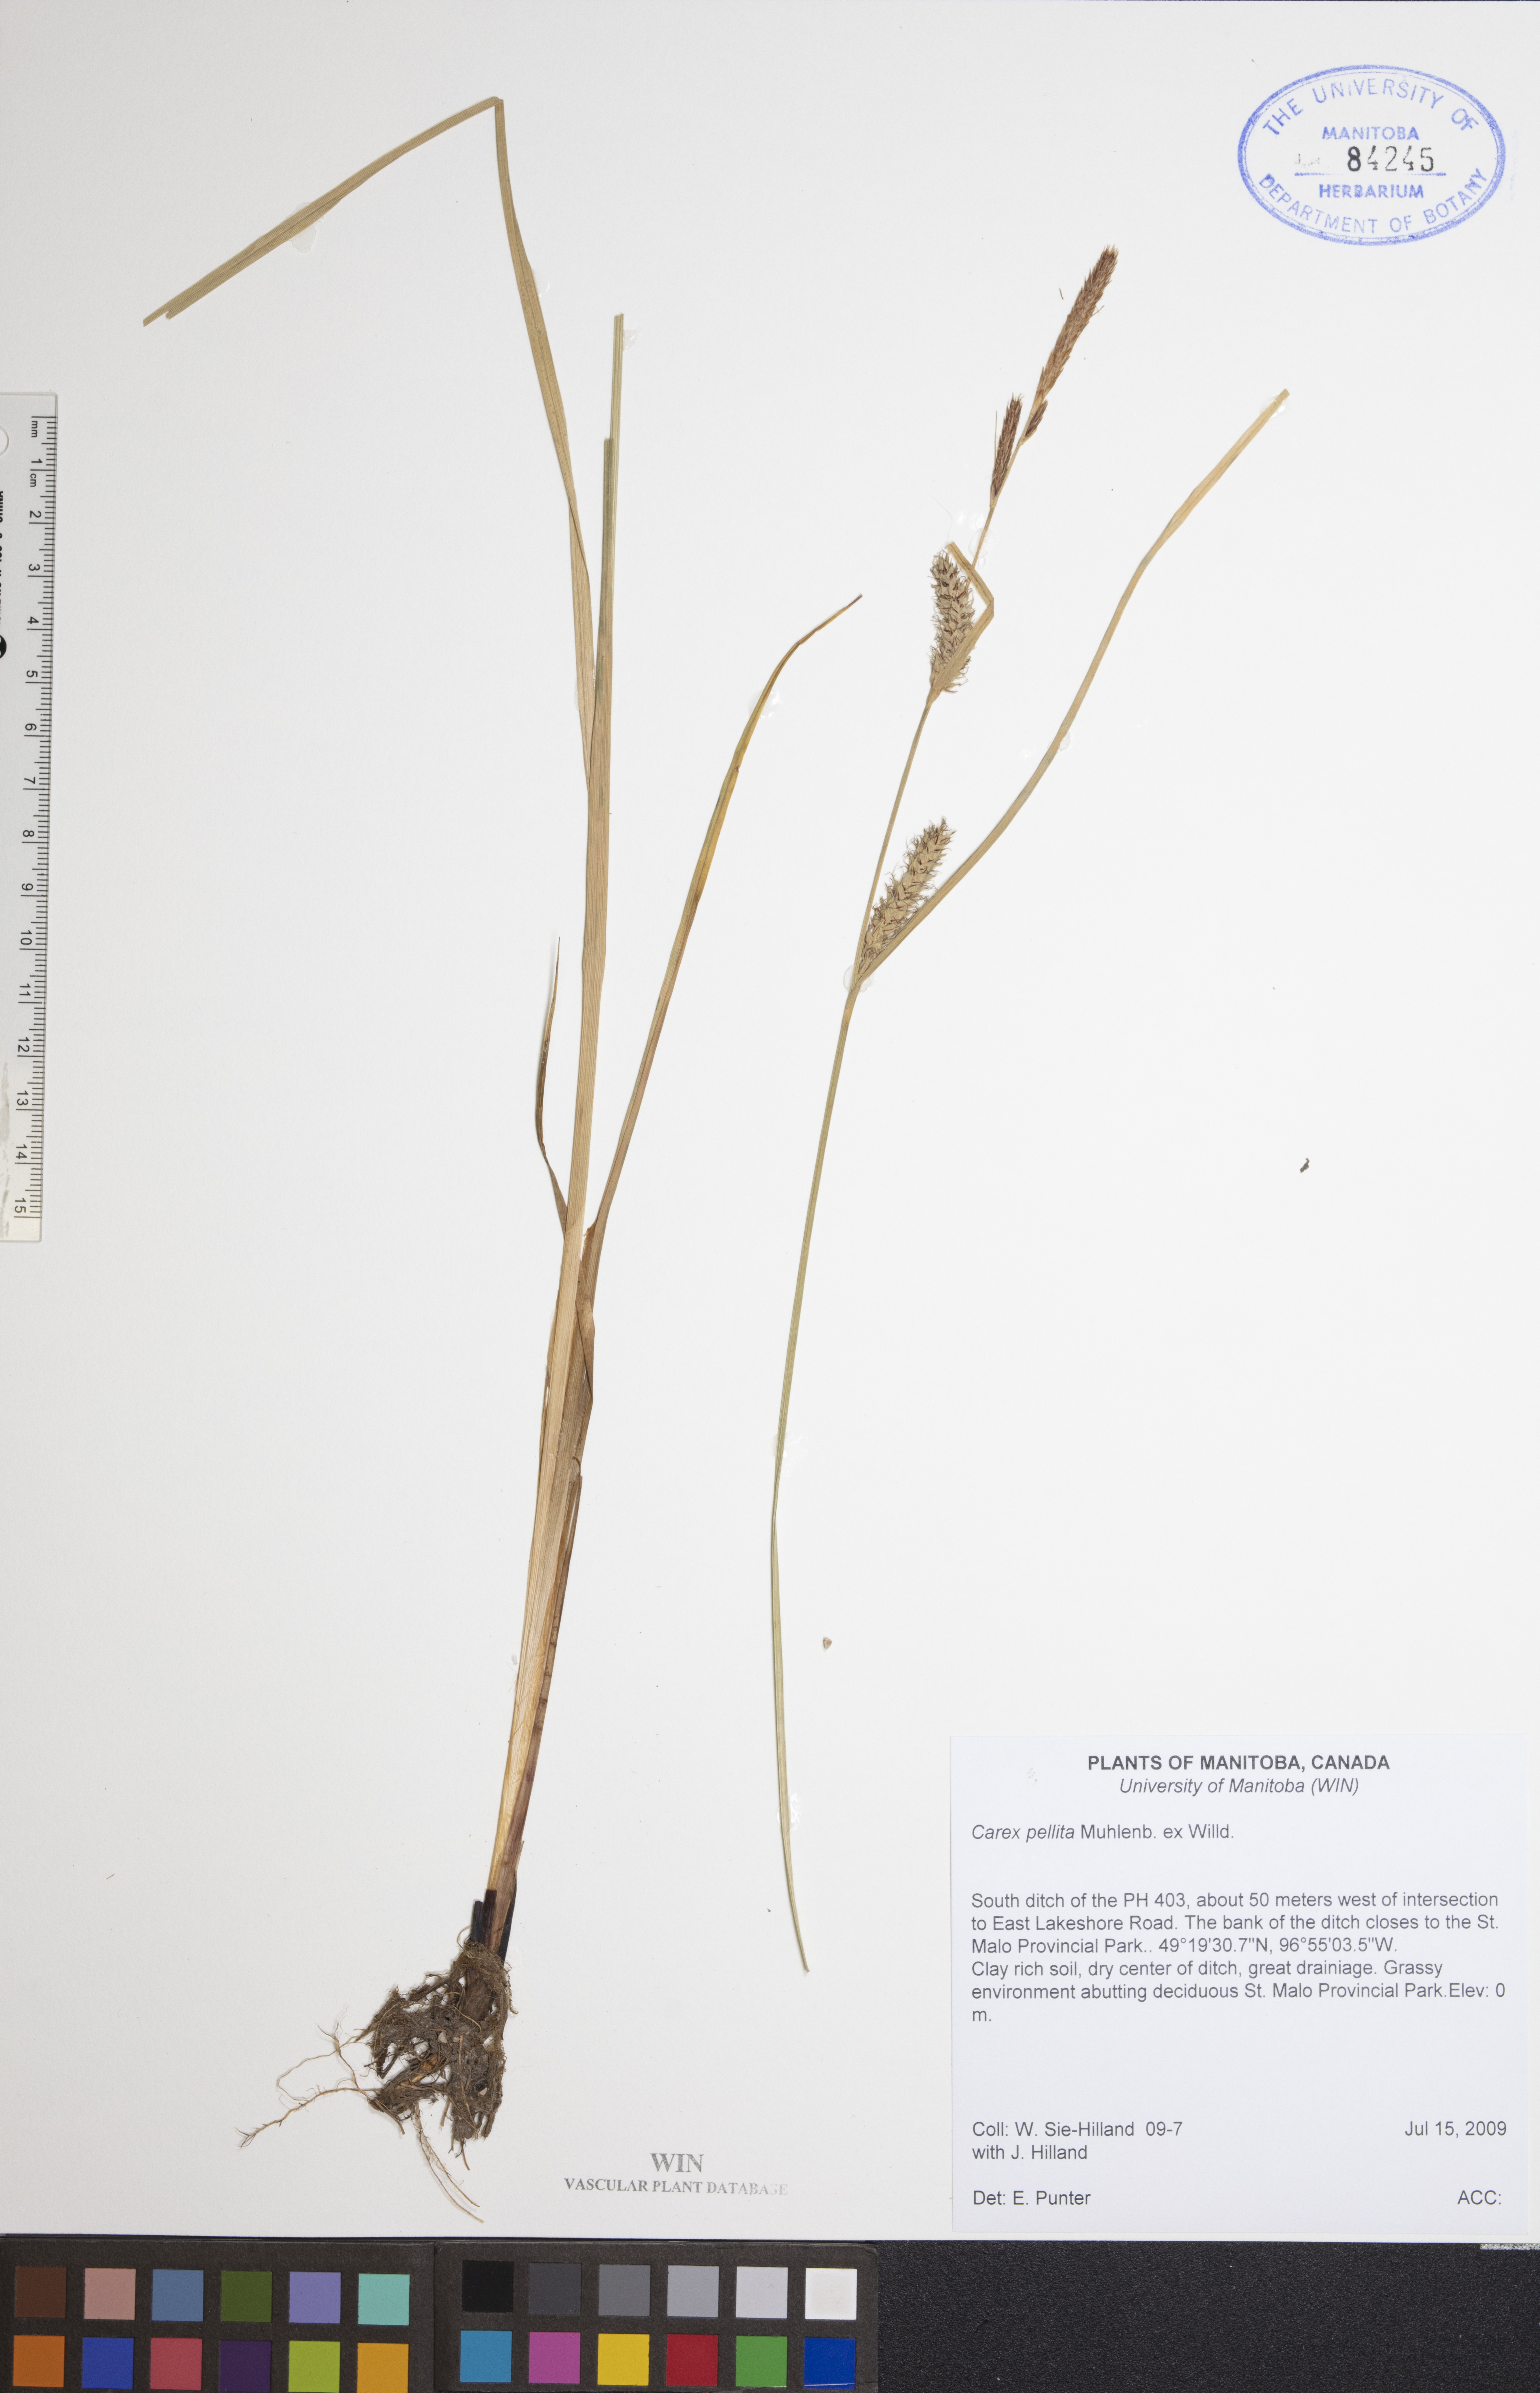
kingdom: Plantae
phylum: Tracheophyta
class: Liliopsida
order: Poales
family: Cyperaceae
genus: Carex
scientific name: Carex pellita
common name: Woolly sedge
